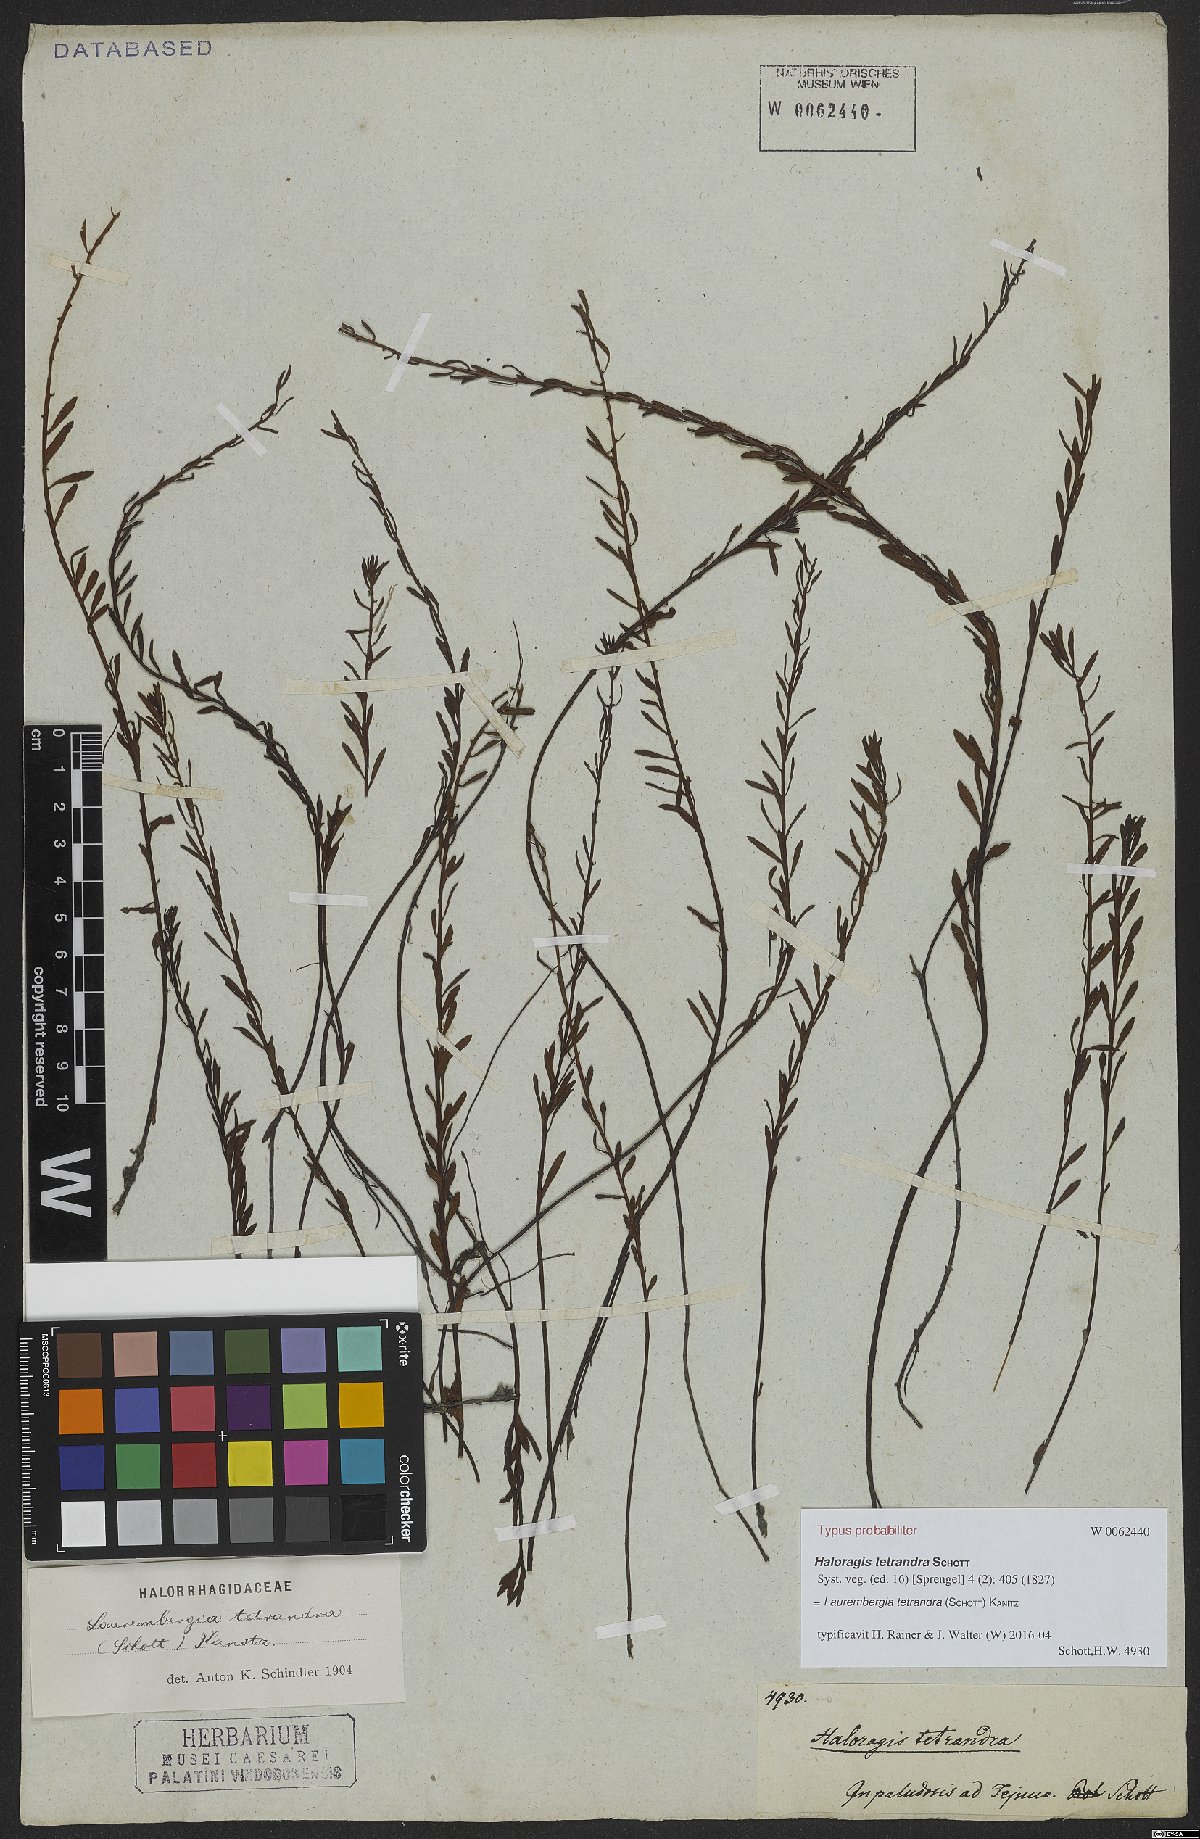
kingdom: Plantae
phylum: Tracheophyta
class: Magnoliopsida
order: Saxifragales
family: Haloragaceae
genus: Laurembergia
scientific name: Laurembergia tetrandra
